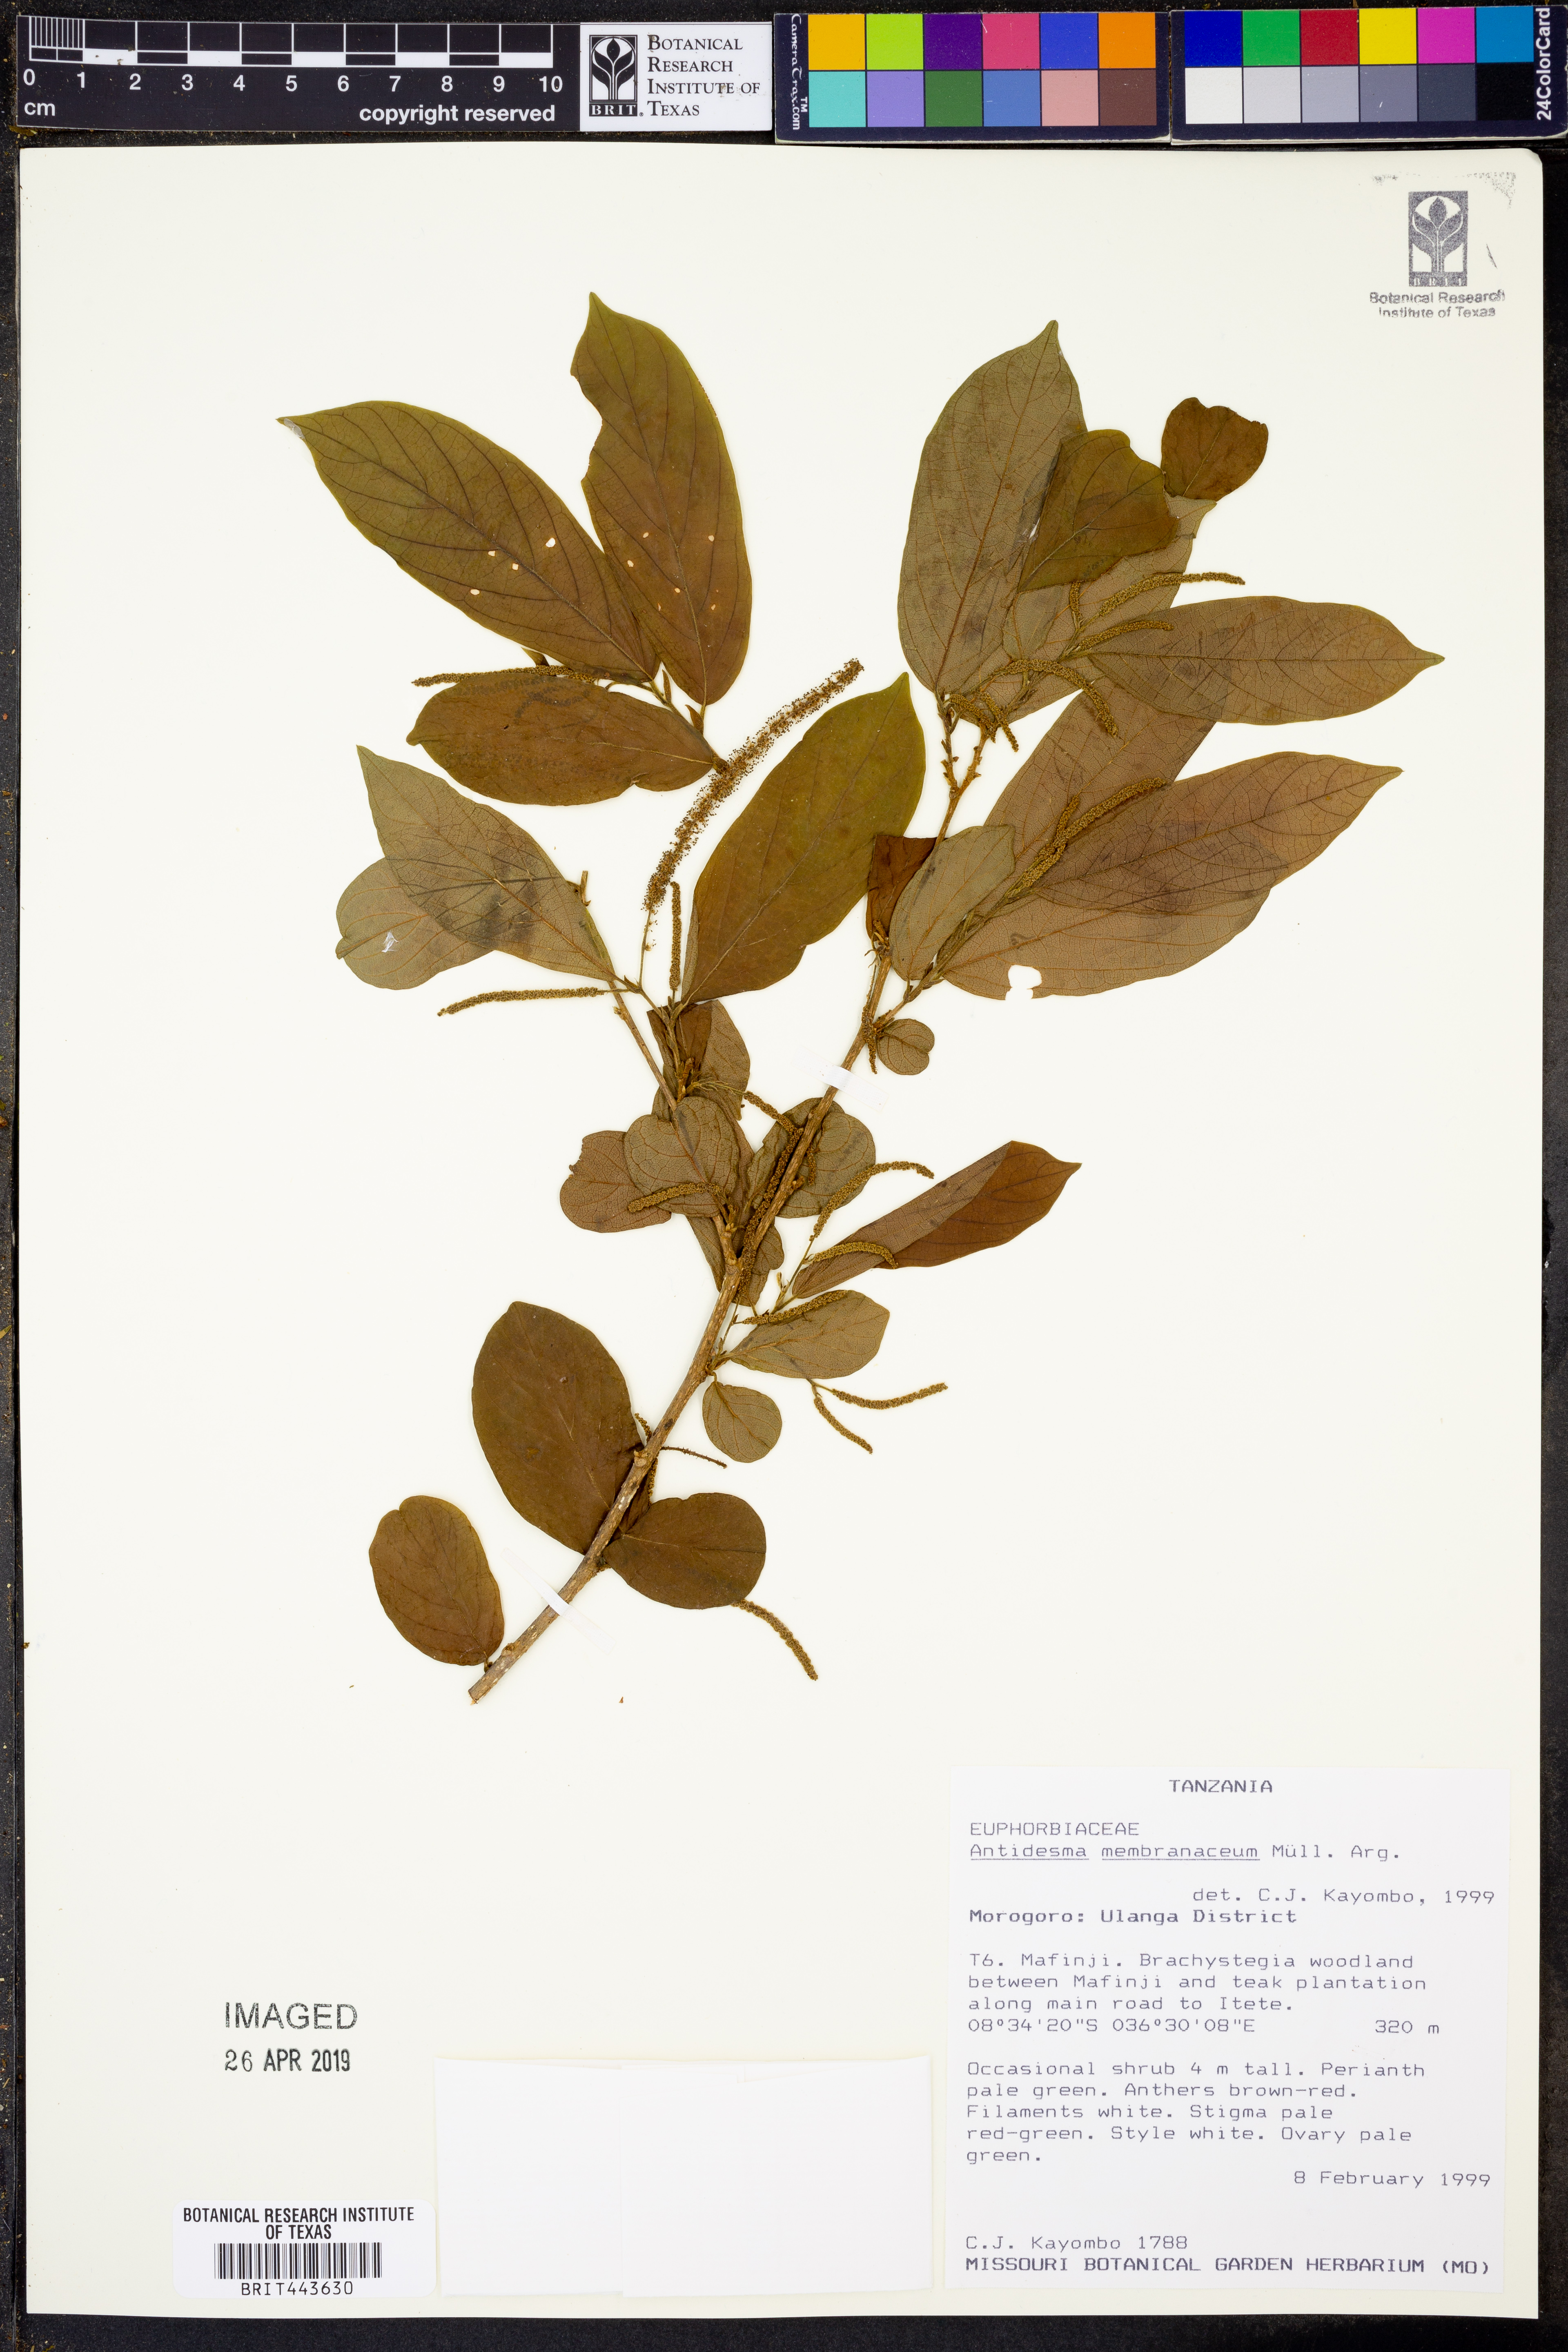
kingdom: Plantae
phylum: Tracheophyta
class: Magnoliopsida
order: Malpighiales
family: Phyllanthaceae
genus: Antidesma
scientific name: Antidesma membranaceum
